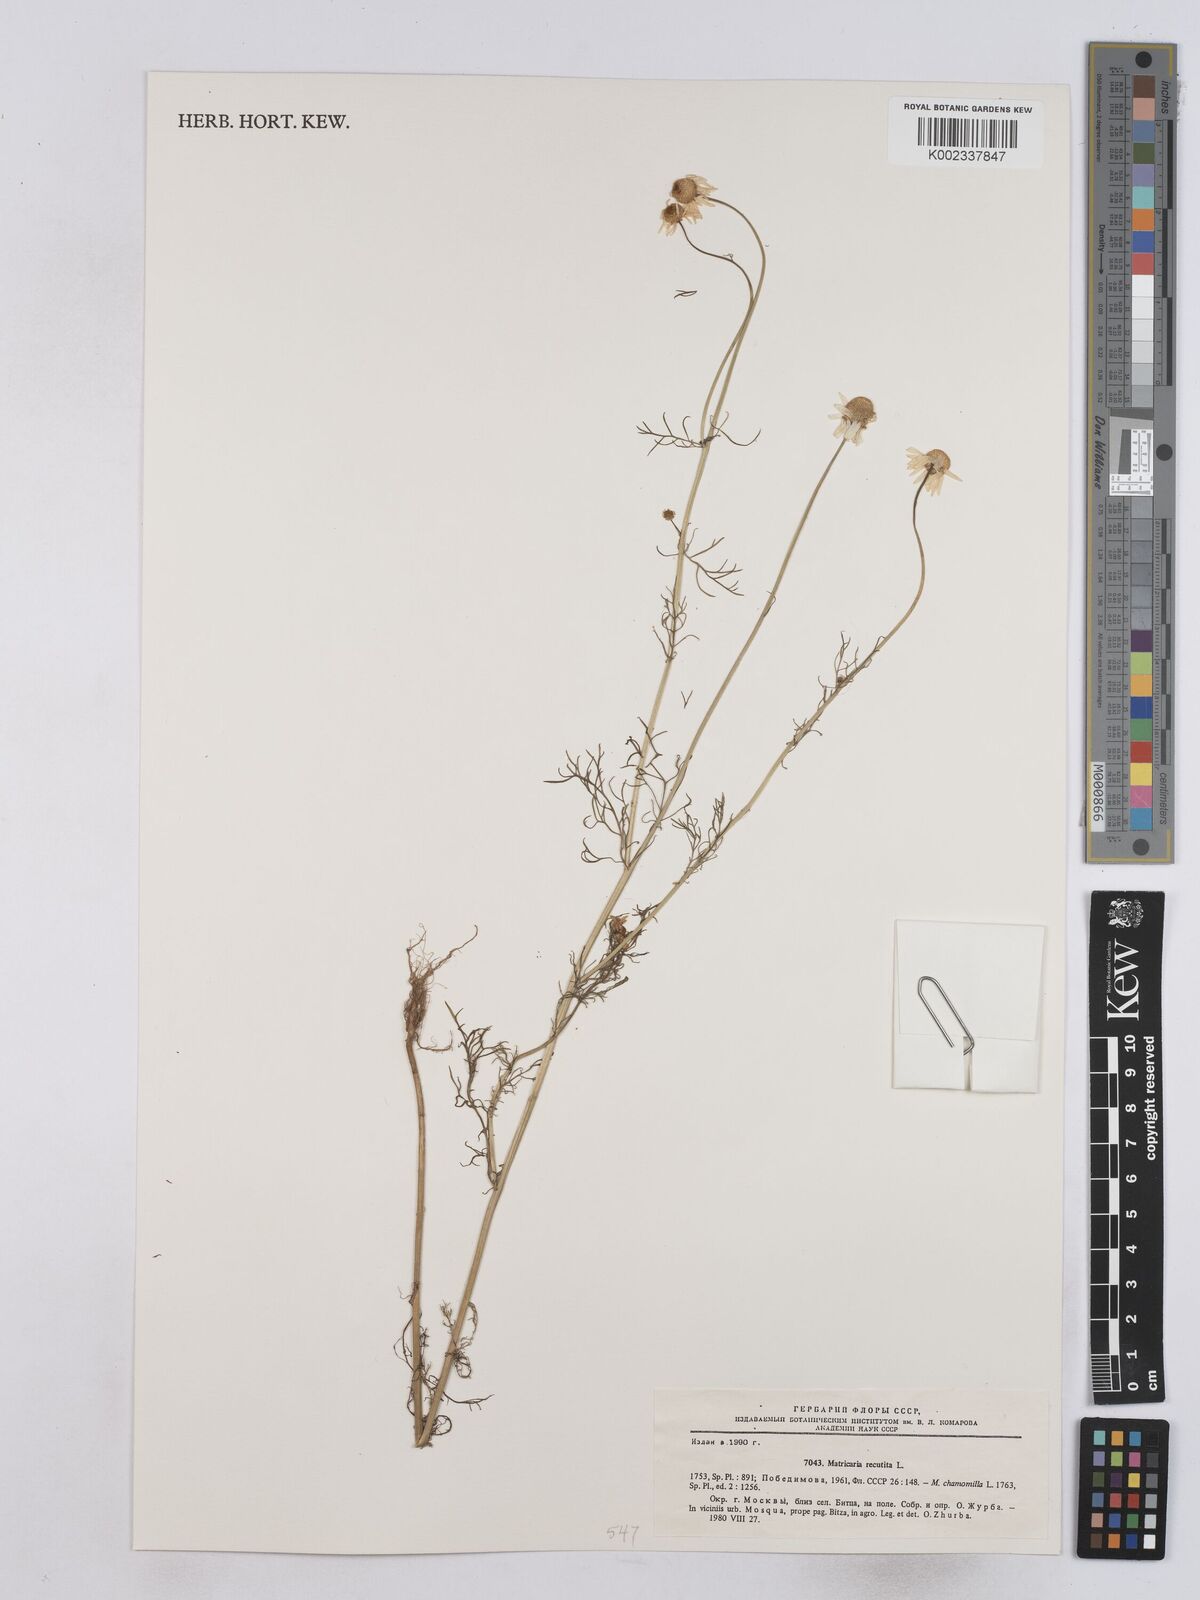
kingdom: Plantae
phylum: Tracheophyta
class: Magnoliopsida
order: Asterales
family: Asteraceae
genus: Matricaria
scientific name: Matricaria chamomilla
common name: Scented mayweed
